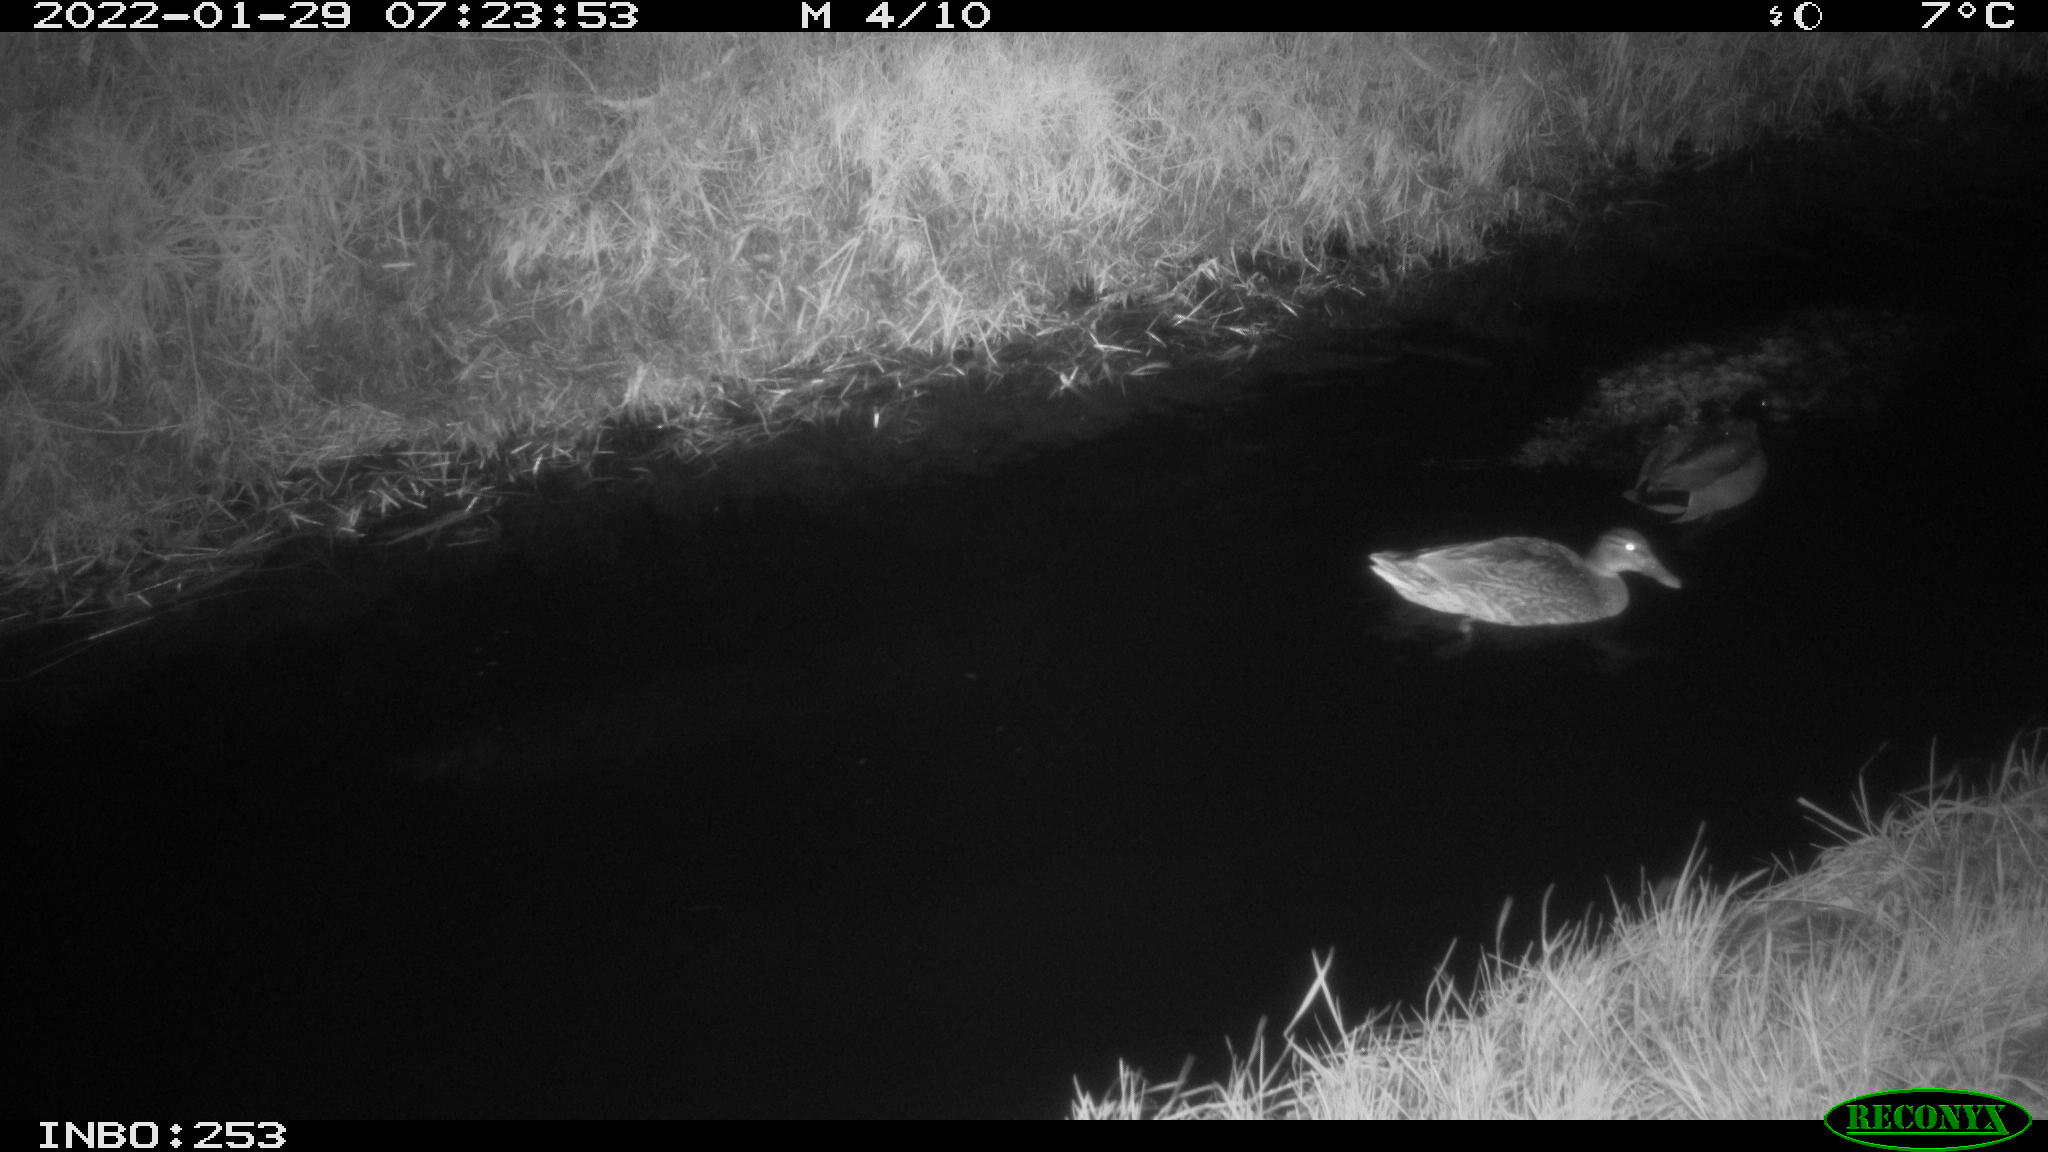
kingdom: Animalia
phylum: Chordata
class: Aves
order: Anseriformes
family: Anatidae
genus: Anas
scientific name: Anas
